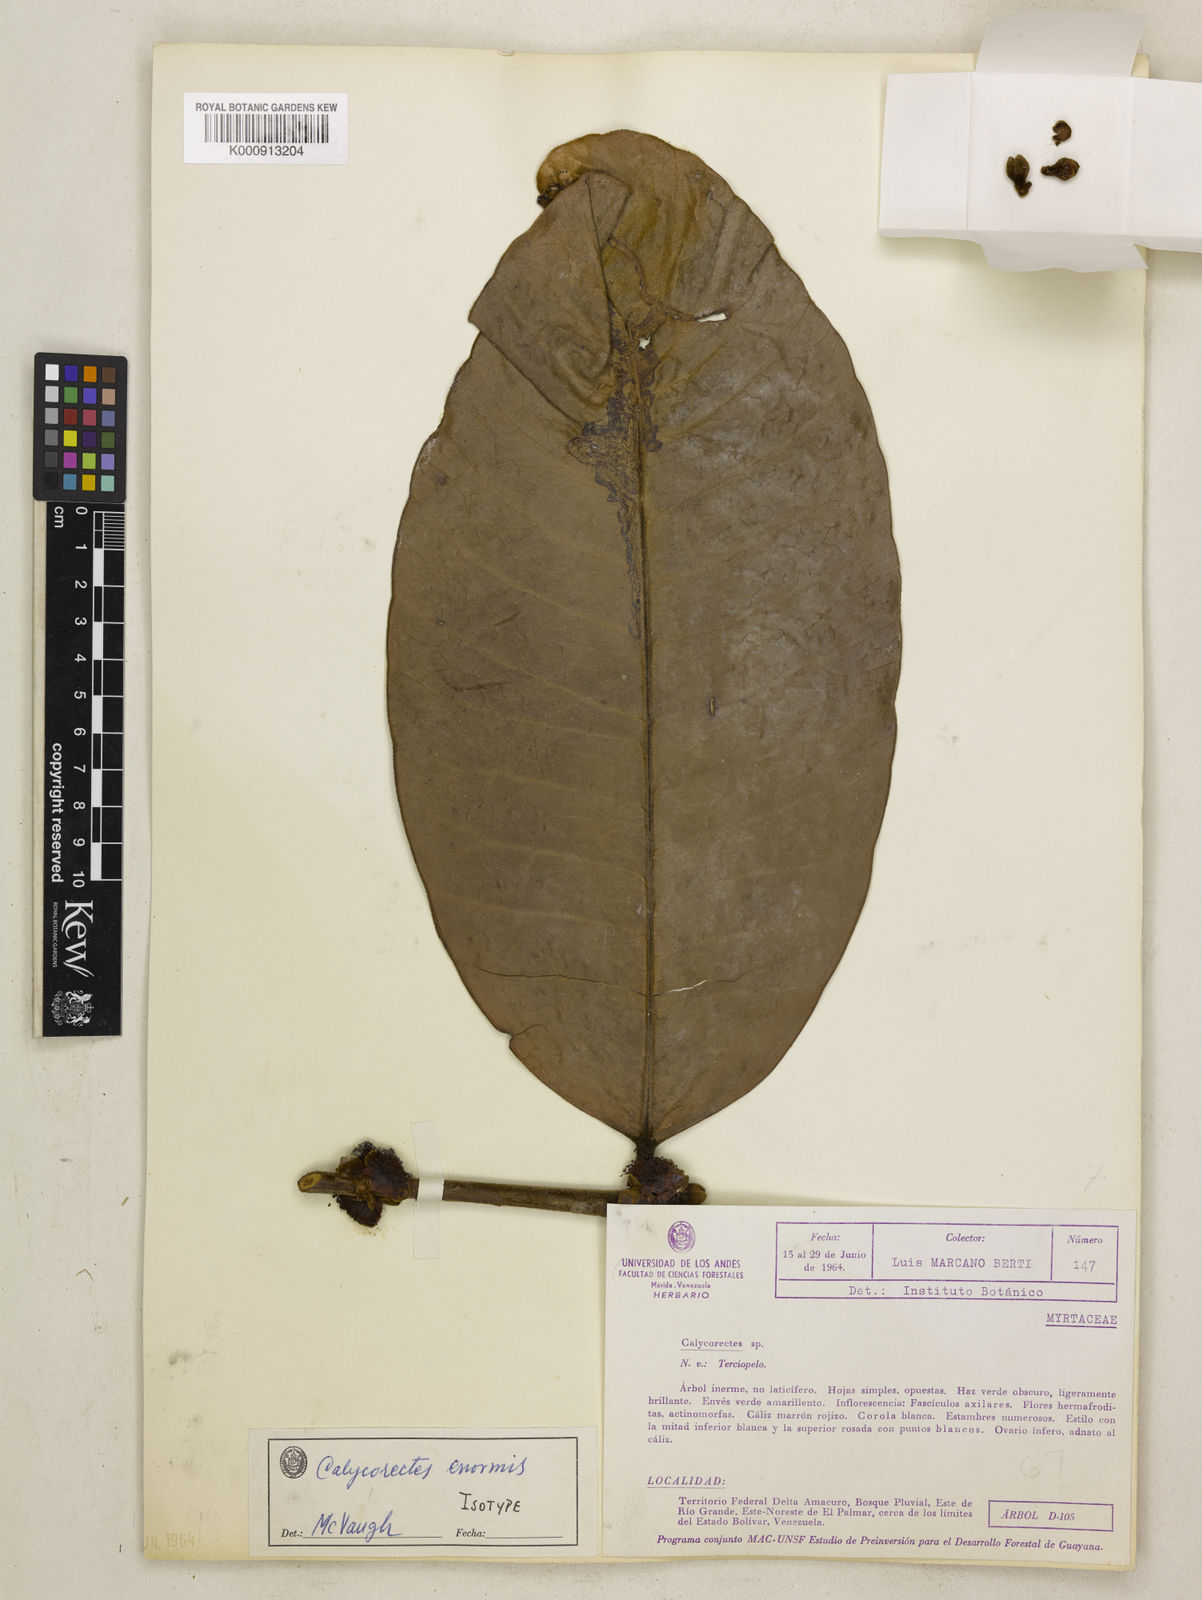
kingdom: Plantae
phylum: Tracheophyta
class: Magnoliopsida
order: Myrtales
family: Myrtaceae
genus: Calycorectes
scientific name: Calycorectes enormis
